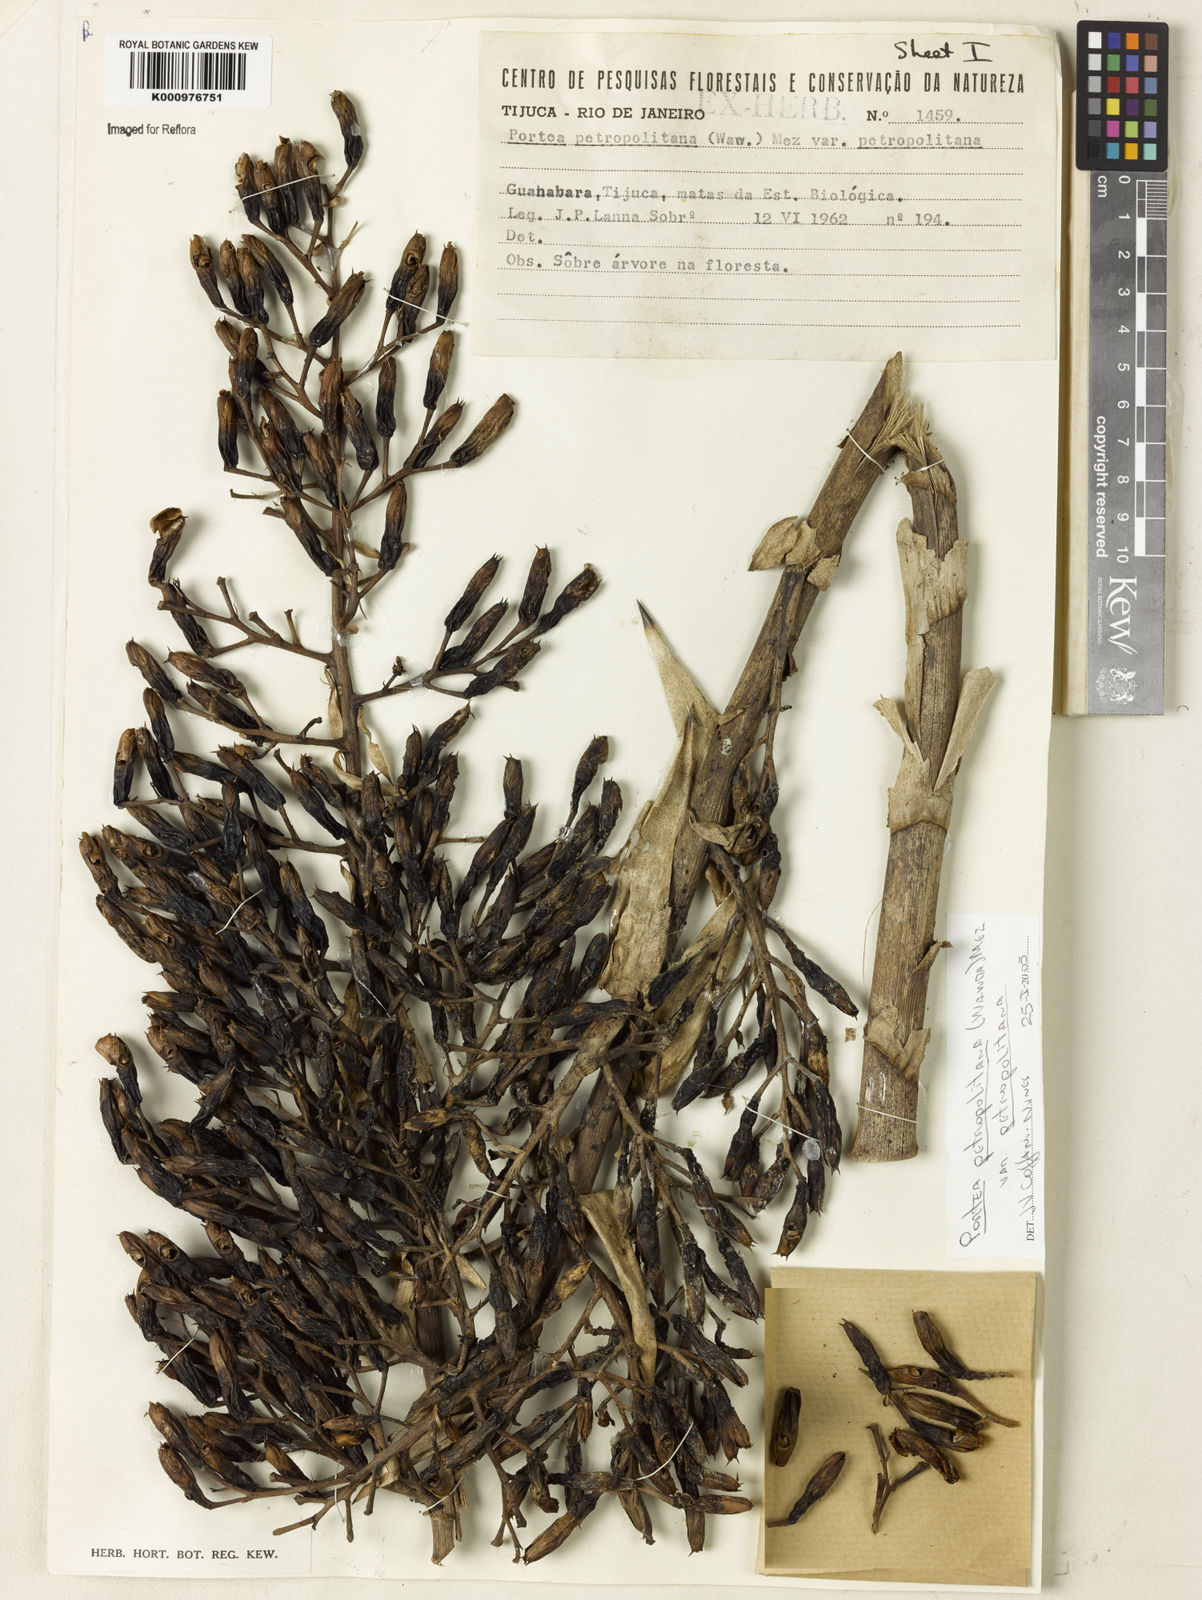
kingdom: Plantae
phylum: Tracheophyta
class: Liliopsida
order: Poales
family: Bromeliaceae
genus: Portea
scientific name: Portea petropolitana
